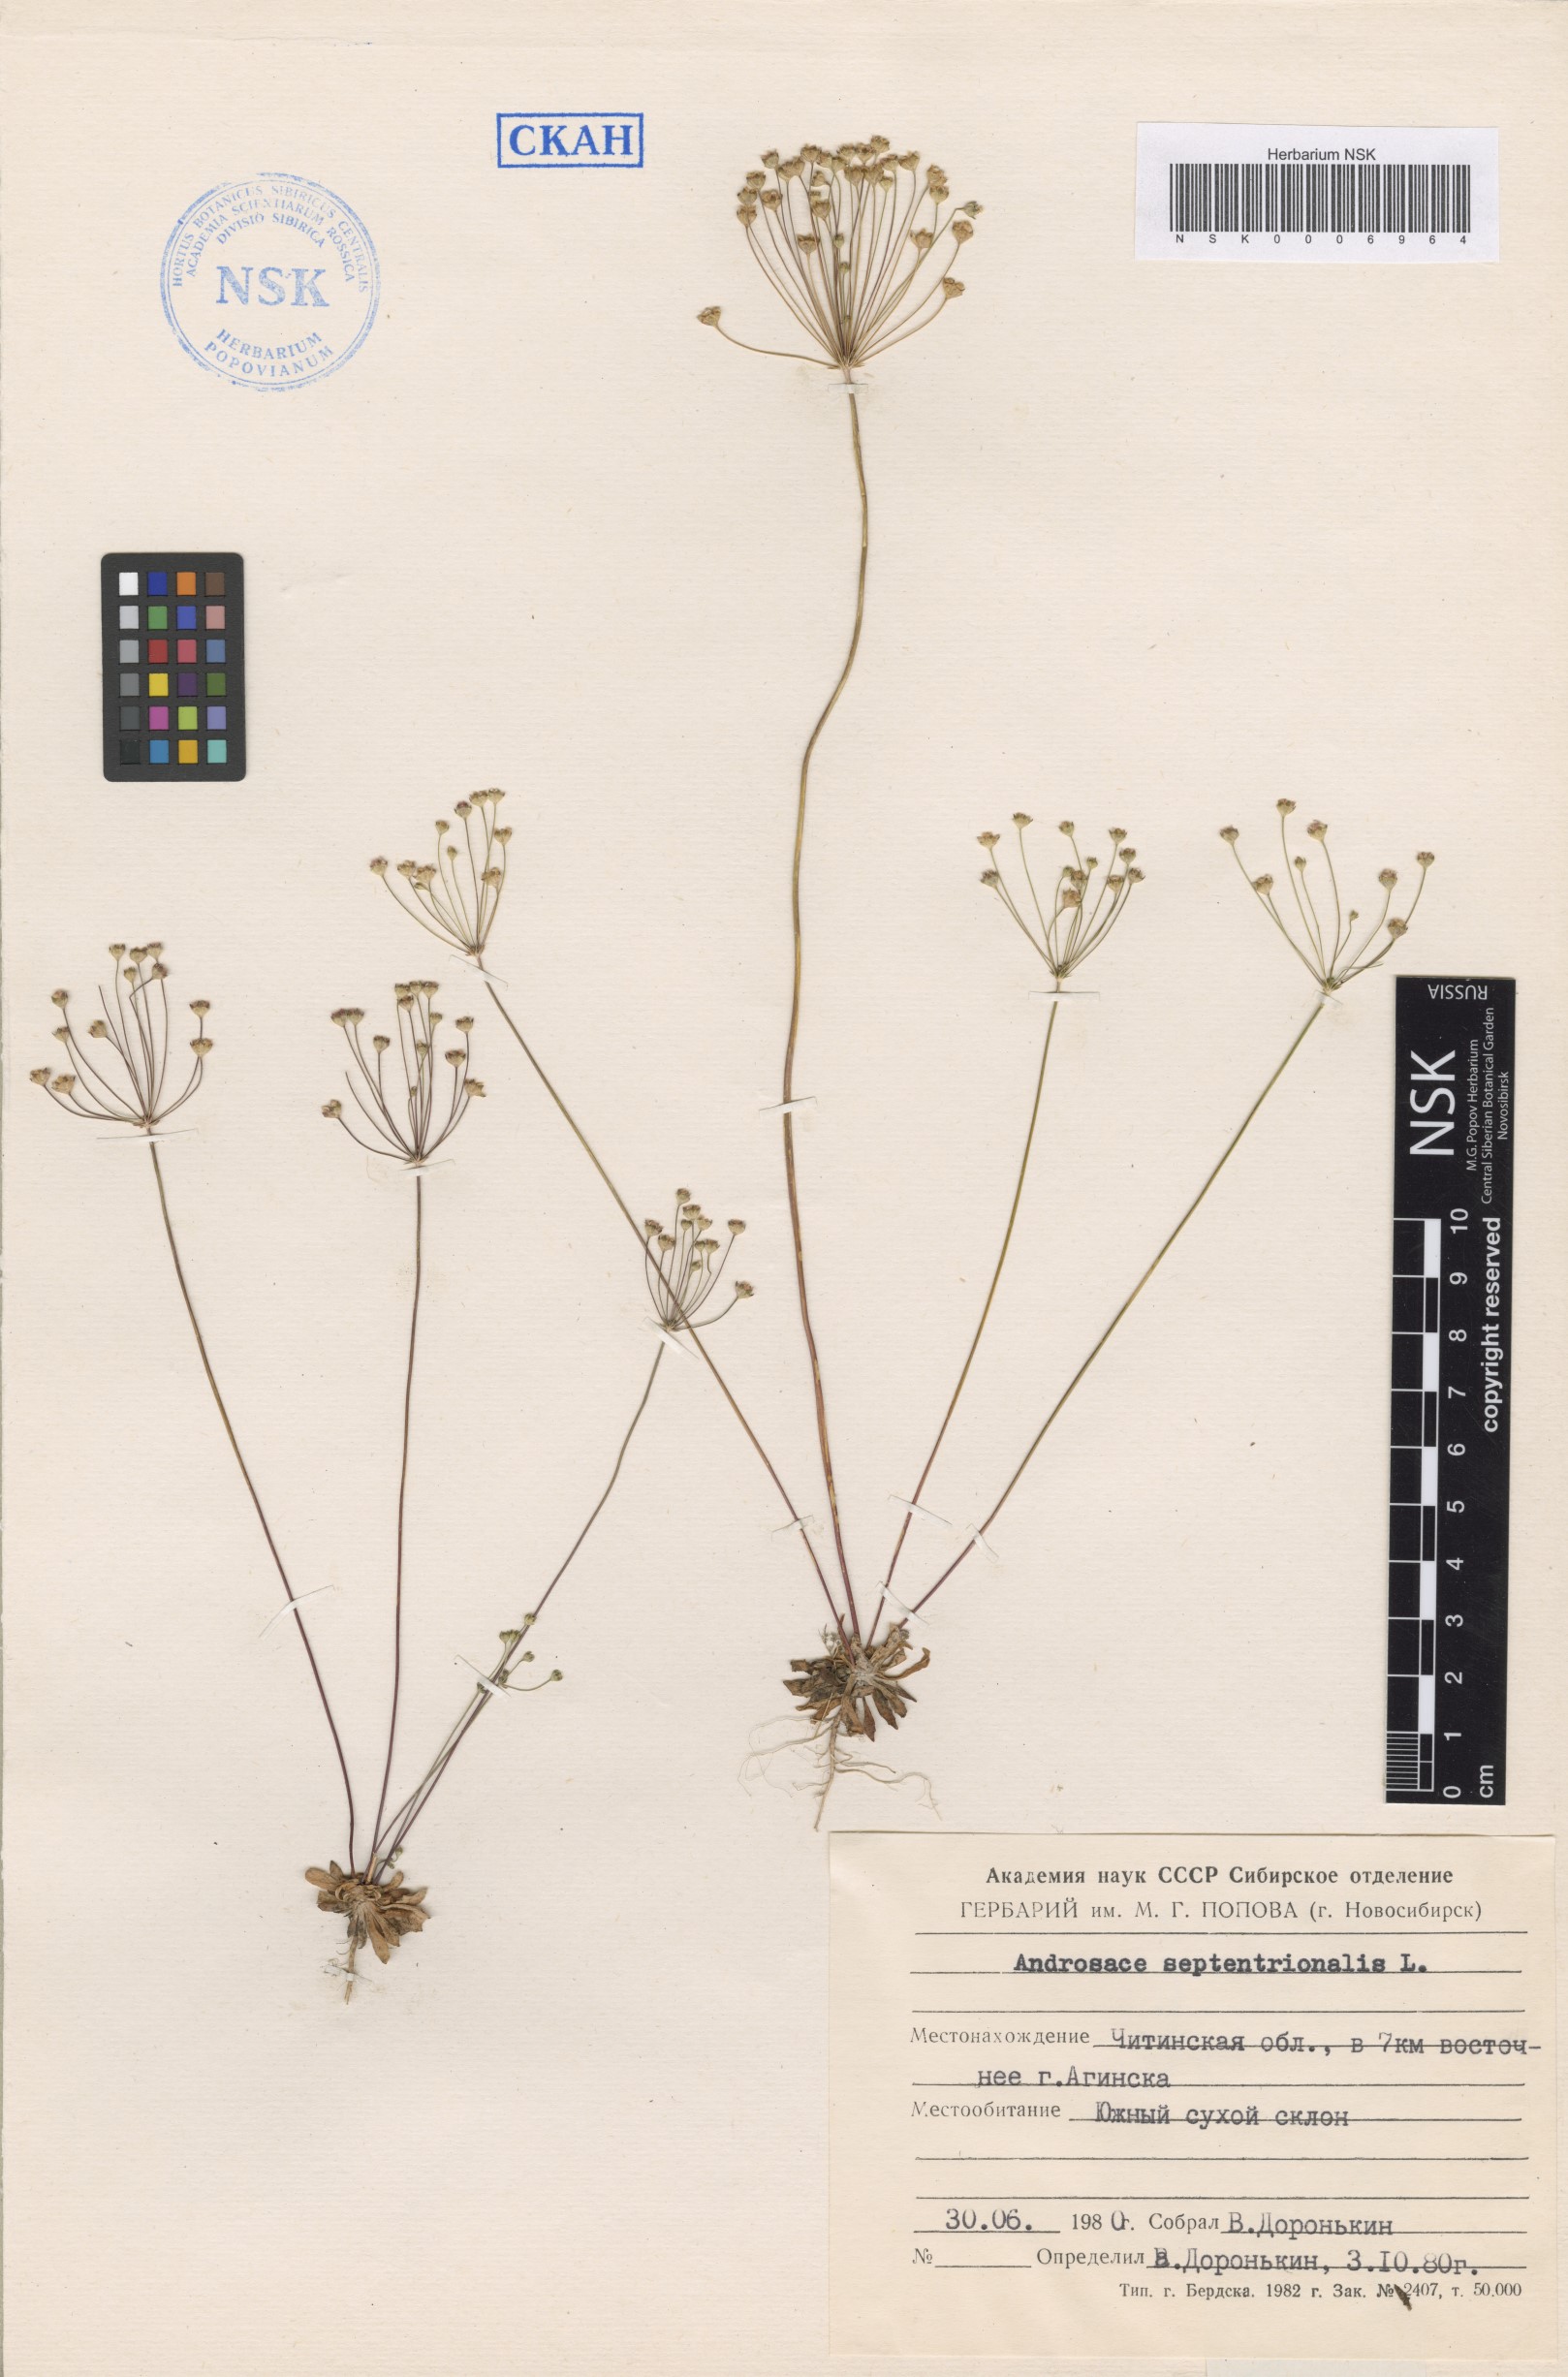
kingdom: Plantae
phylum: Tracheophyta
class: Magnoliopsida
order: Ericales
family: Primulaceae
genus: Androsace
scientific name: Androsace septentrionalis
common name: Hairy northern fairy-candelabra
